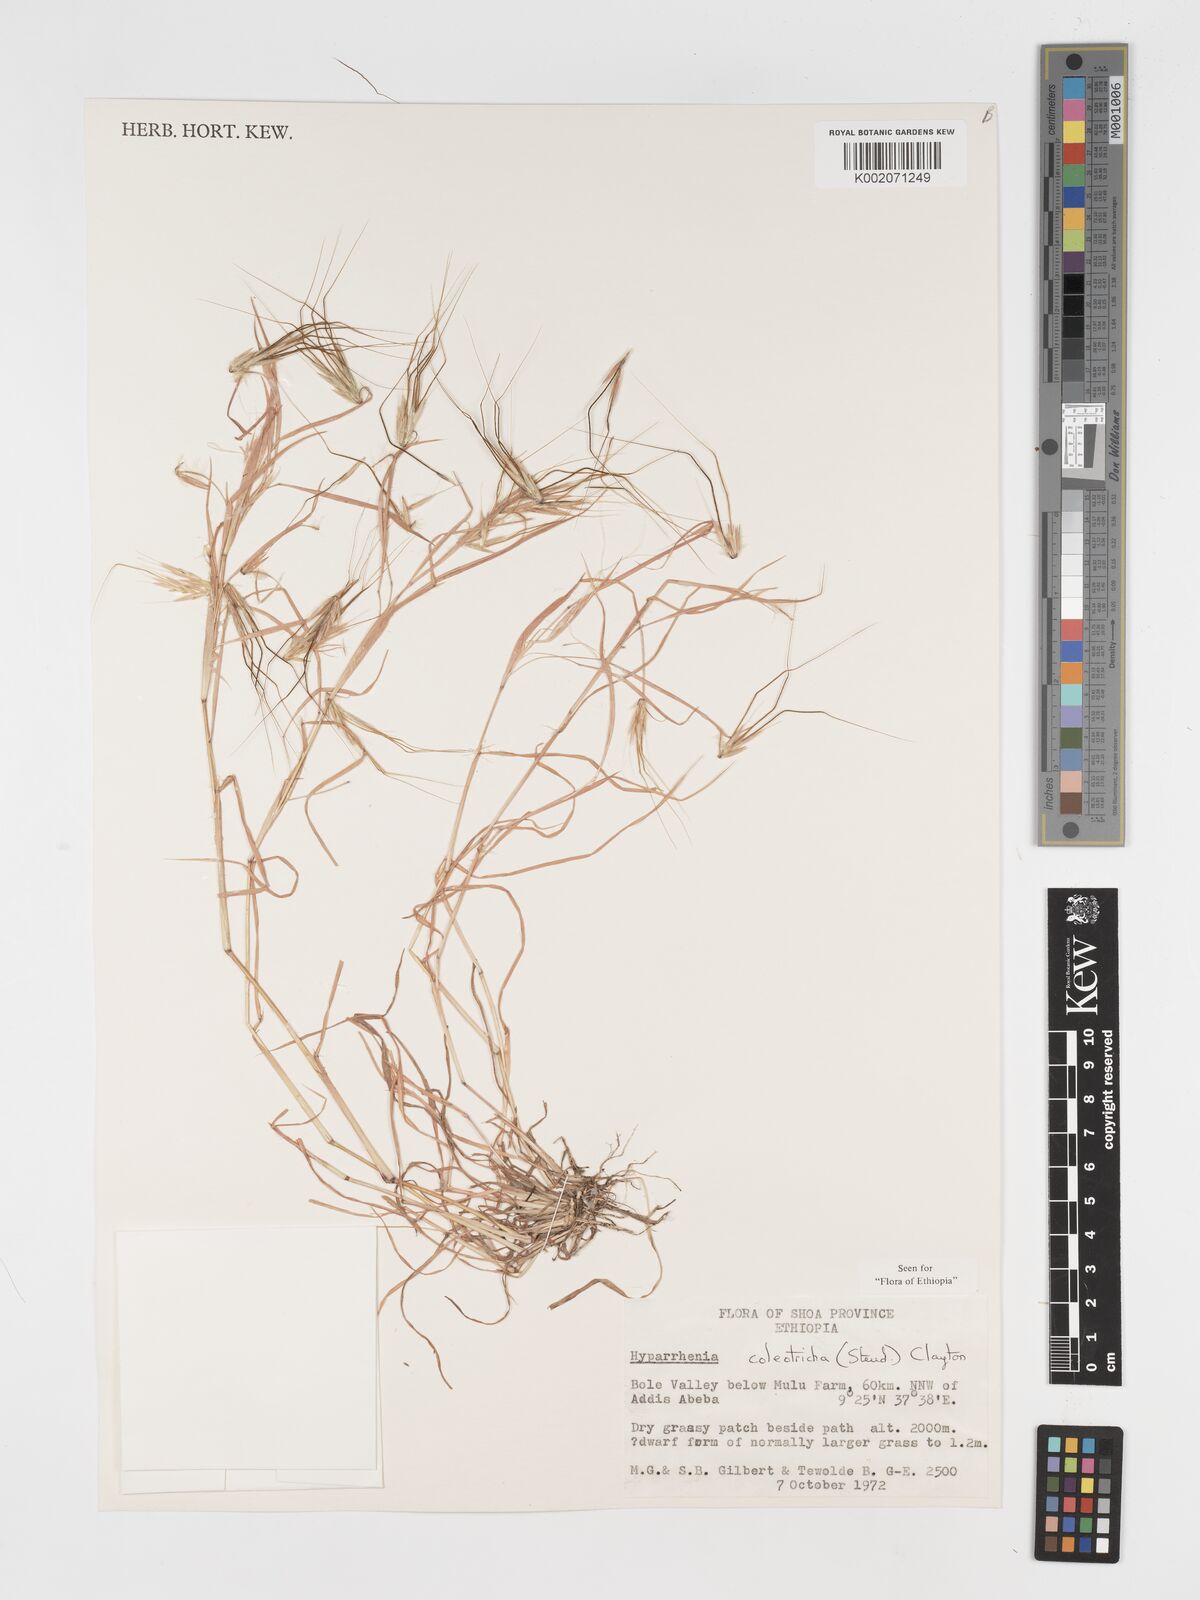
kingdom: Plantae
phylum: Tracheophyta
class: Liliopsida
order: Poales
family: Poaceae
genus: Hyparrhenia
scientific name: Hyparrhenia coleotricha
